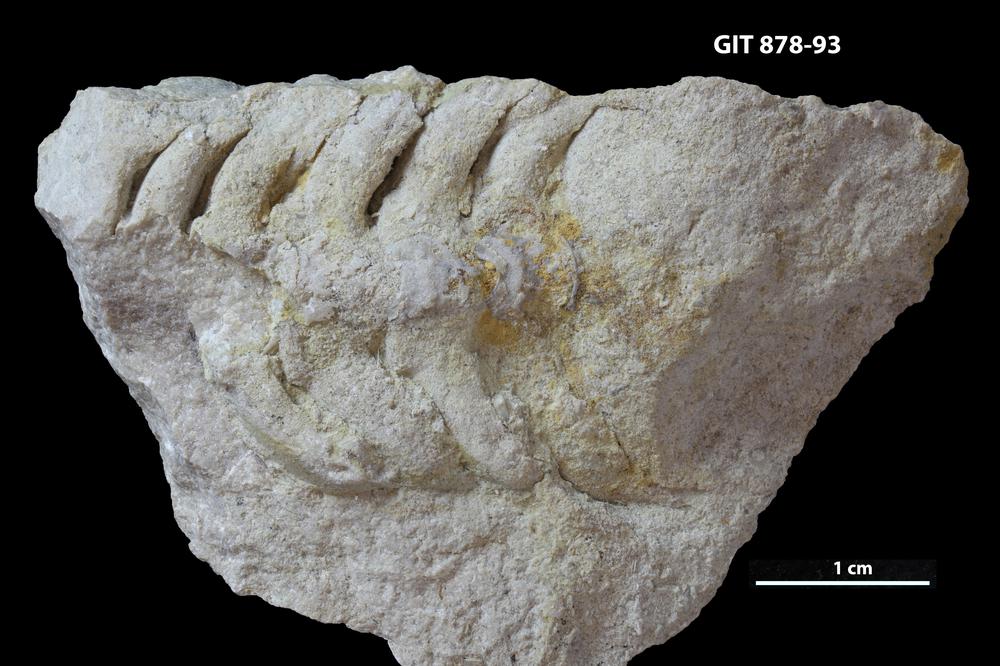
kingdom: Animalia
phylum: Mollusca
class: Cephalopoda
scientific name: Cephalopoda
